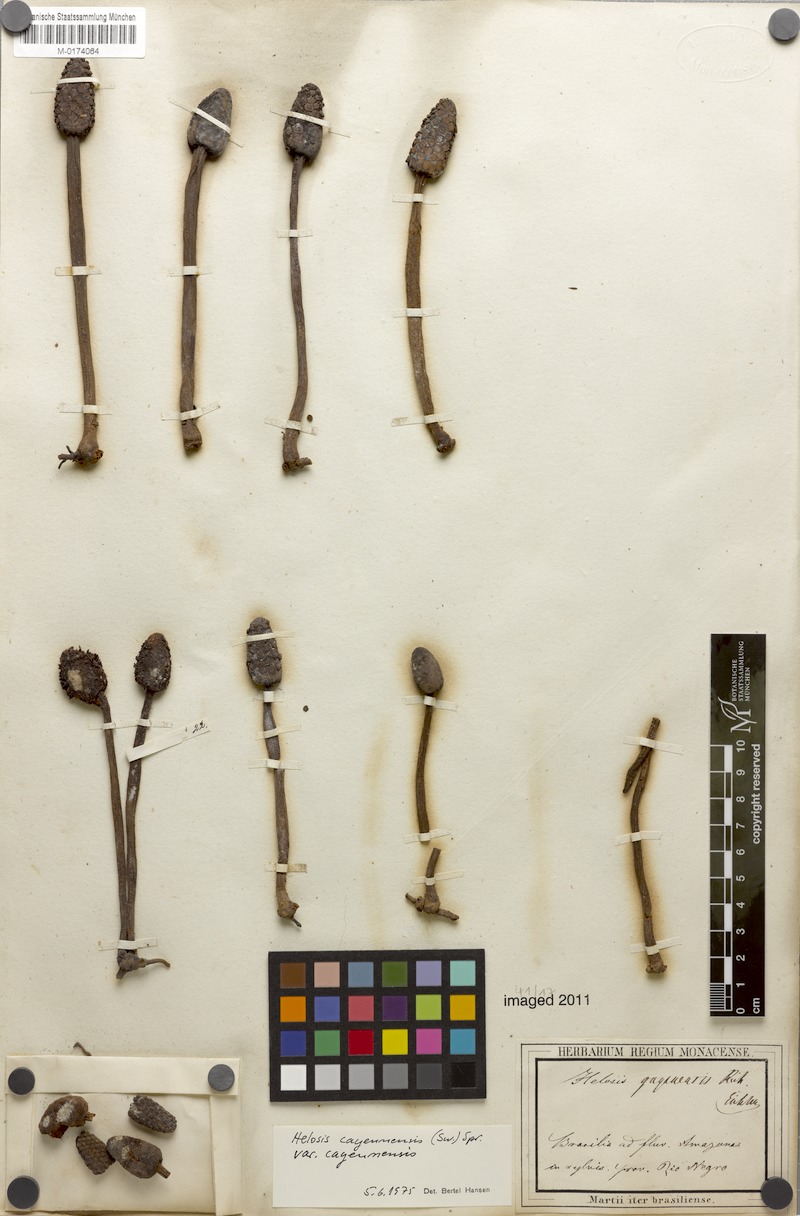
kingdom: Plantae
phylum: Tracheophyta
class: Magnoliopsida
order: Santalales
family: Balanophoraceae
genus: Helosis
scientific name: Helosis cayennensis
